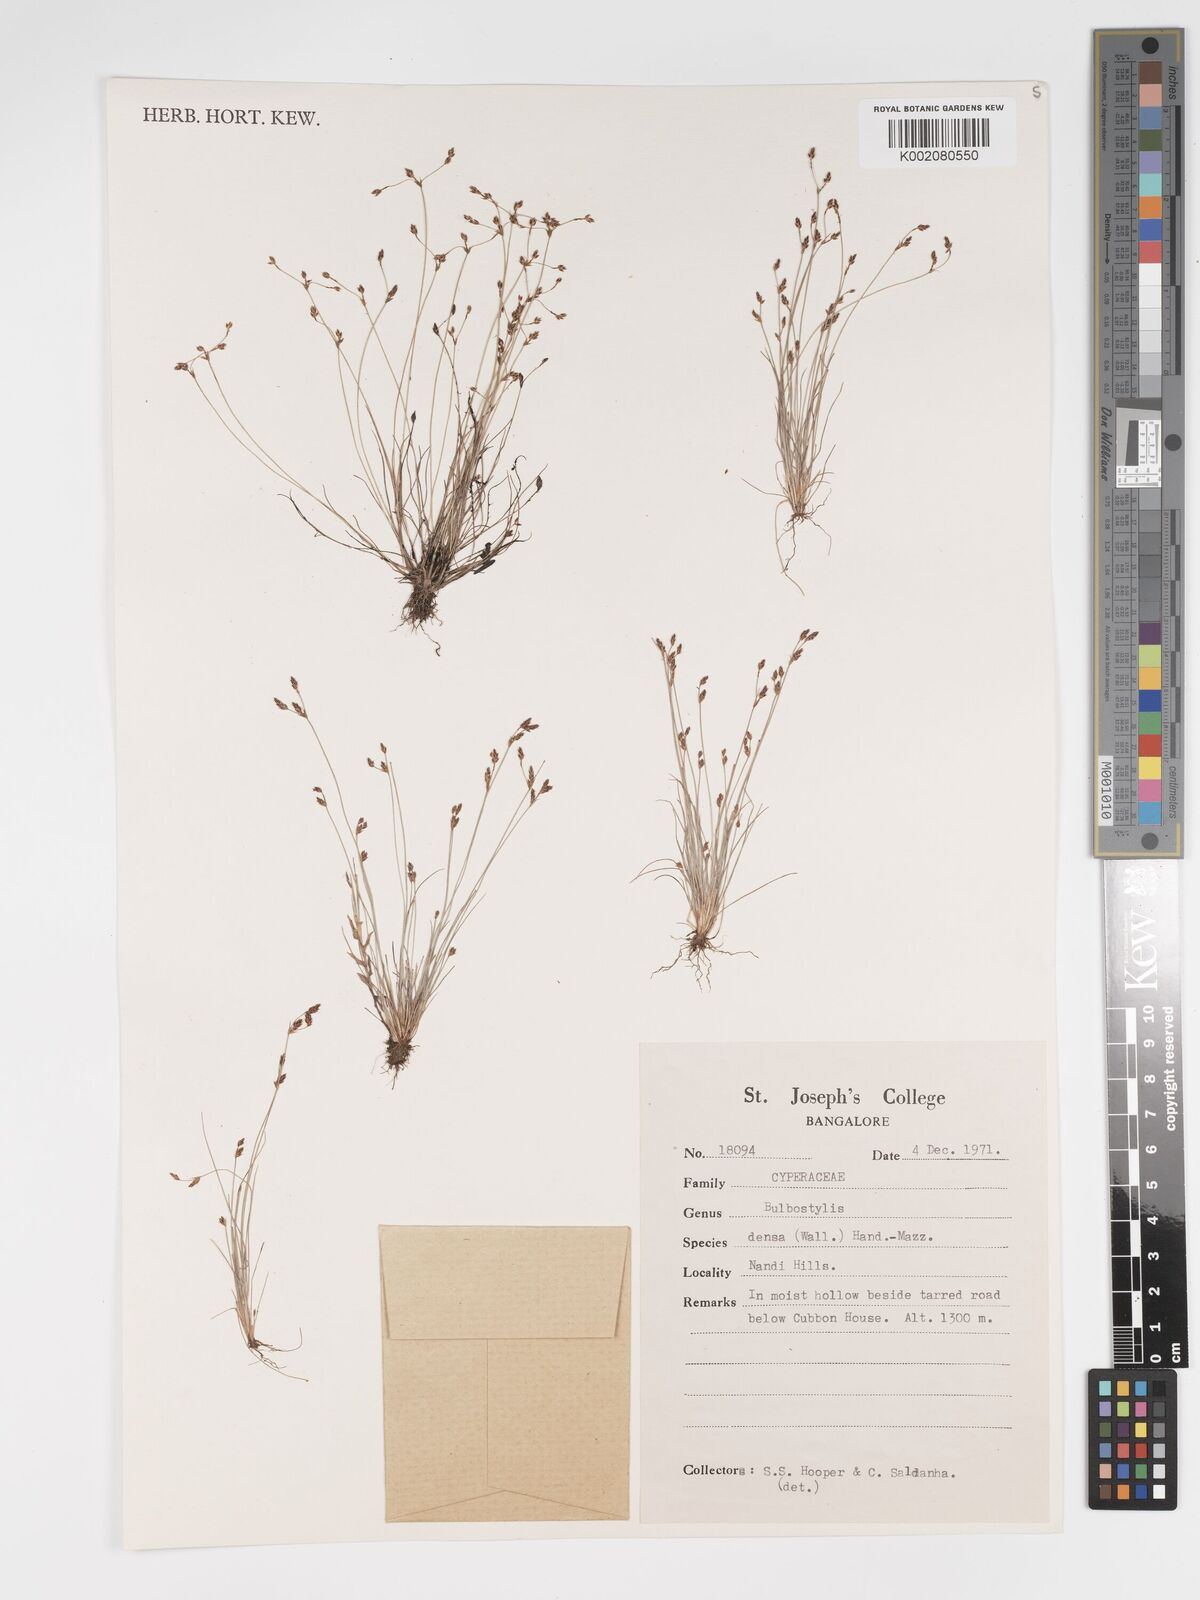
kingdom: Plantae
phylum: Tracheophyta
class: Liliopsida
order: Poales
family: Cyperaceae
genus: Bulbostylis
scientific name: Bulbostylis densa
